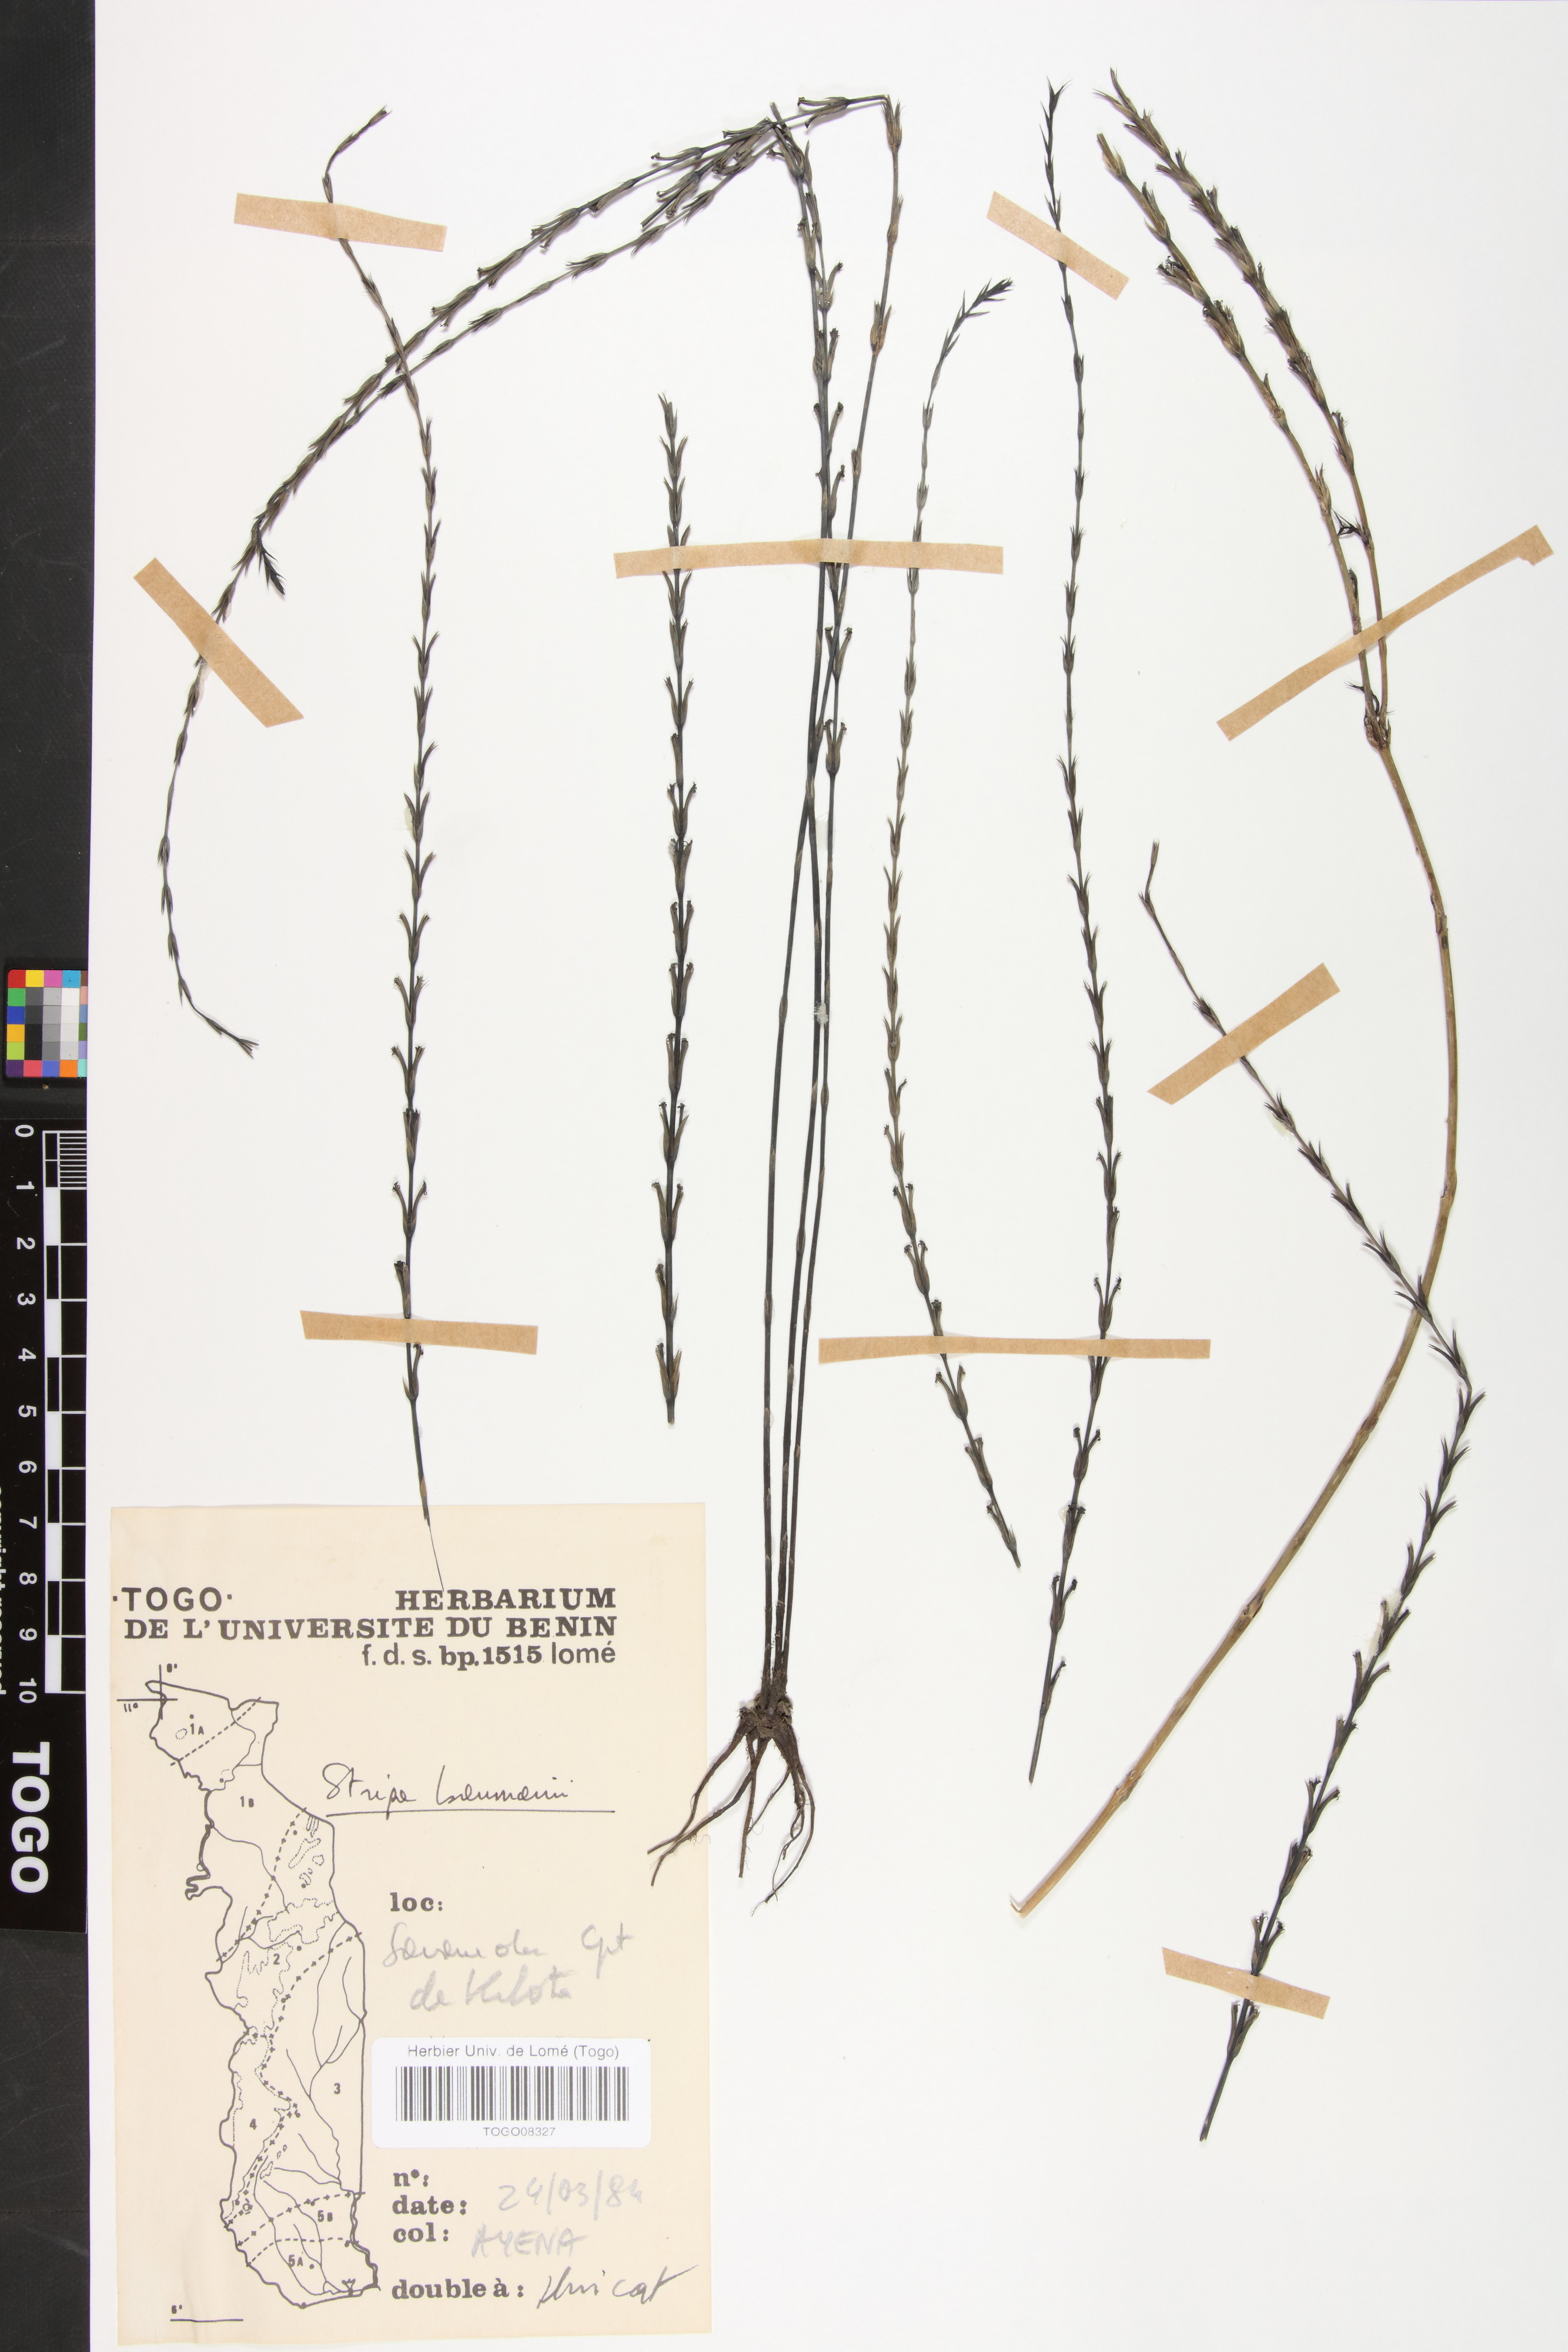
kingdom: Plantae
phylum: Tracheophyta
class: Magnoliopsida
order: Lamiales
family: Orobanchaceae
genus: Striga
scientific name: Striga baumannii
